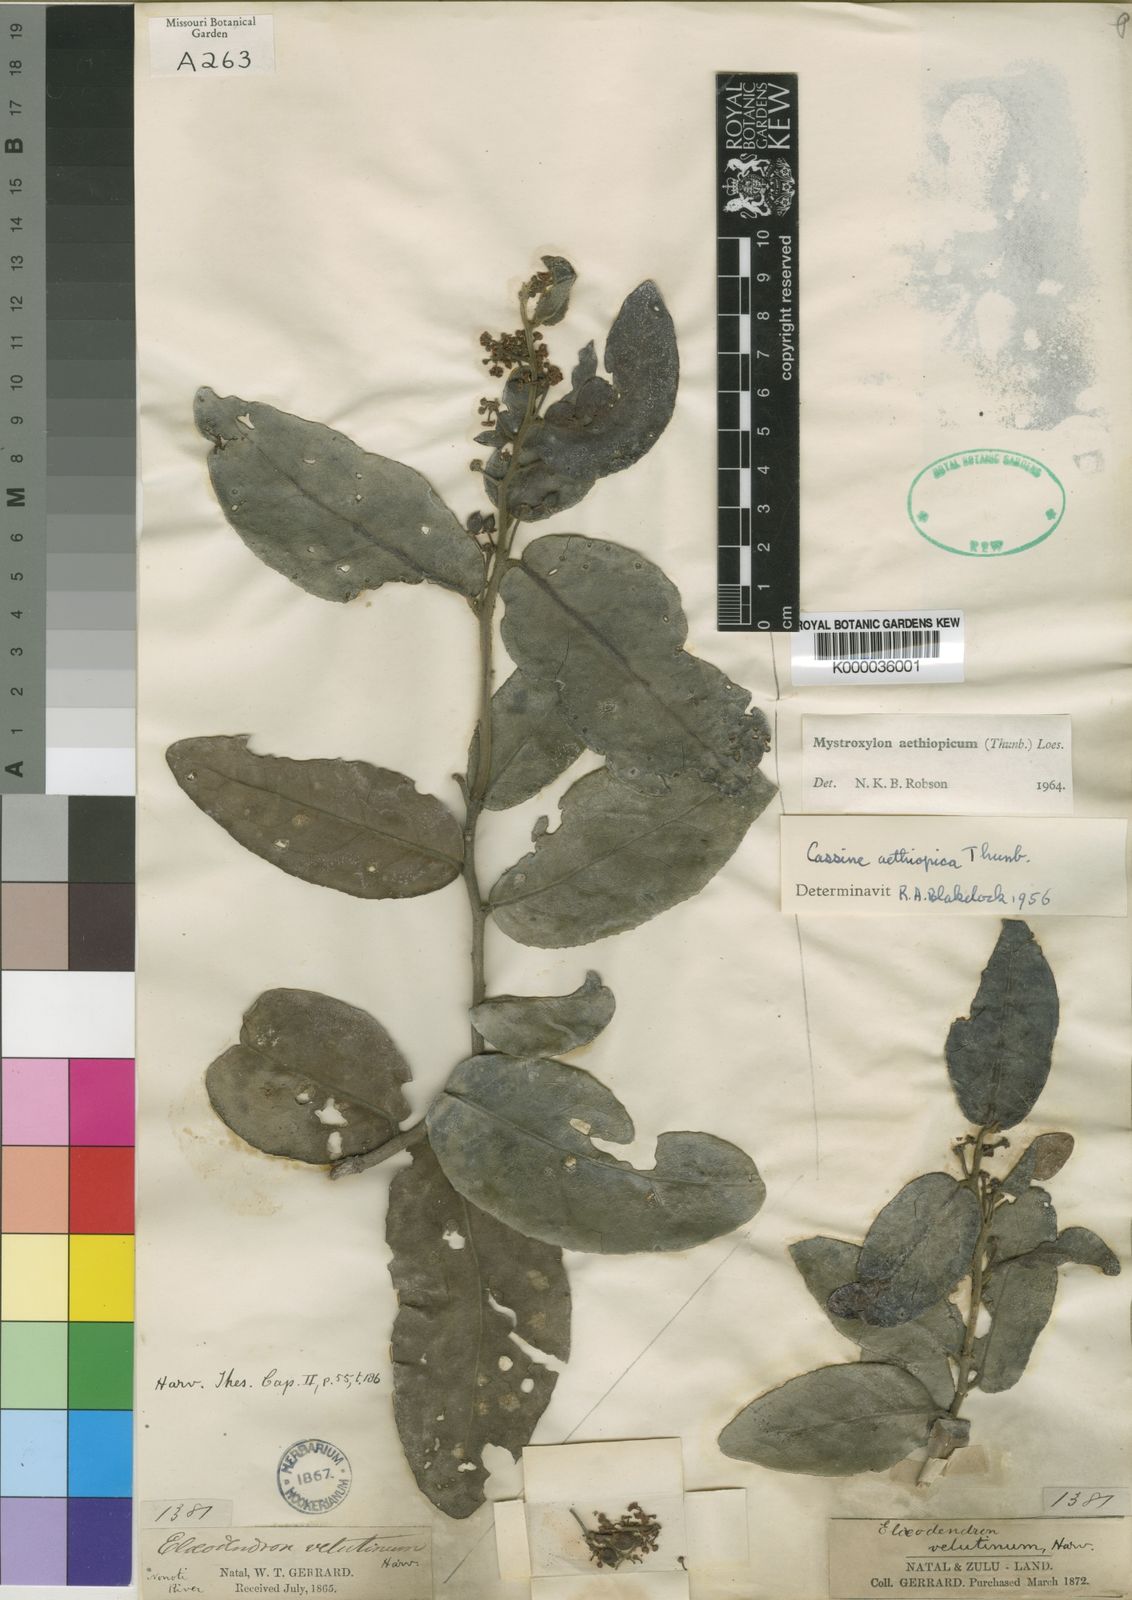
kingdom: Plantae
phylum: Tracheophyta
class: Magnoliopsida
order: Celastrales
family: Celastraceae
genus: Mystroxylon
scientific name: Mystroxylon aethiopicum
